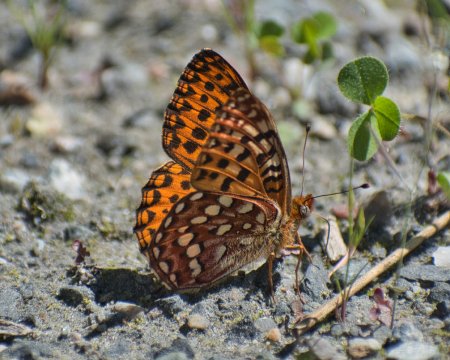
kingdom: Animalia
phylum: Arthropoda
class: Insecta
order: Lepidoptera
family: Nymphalidae
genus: Speyeria
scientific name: Speyeria hydaspe
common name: Hydaspe Fritillary
